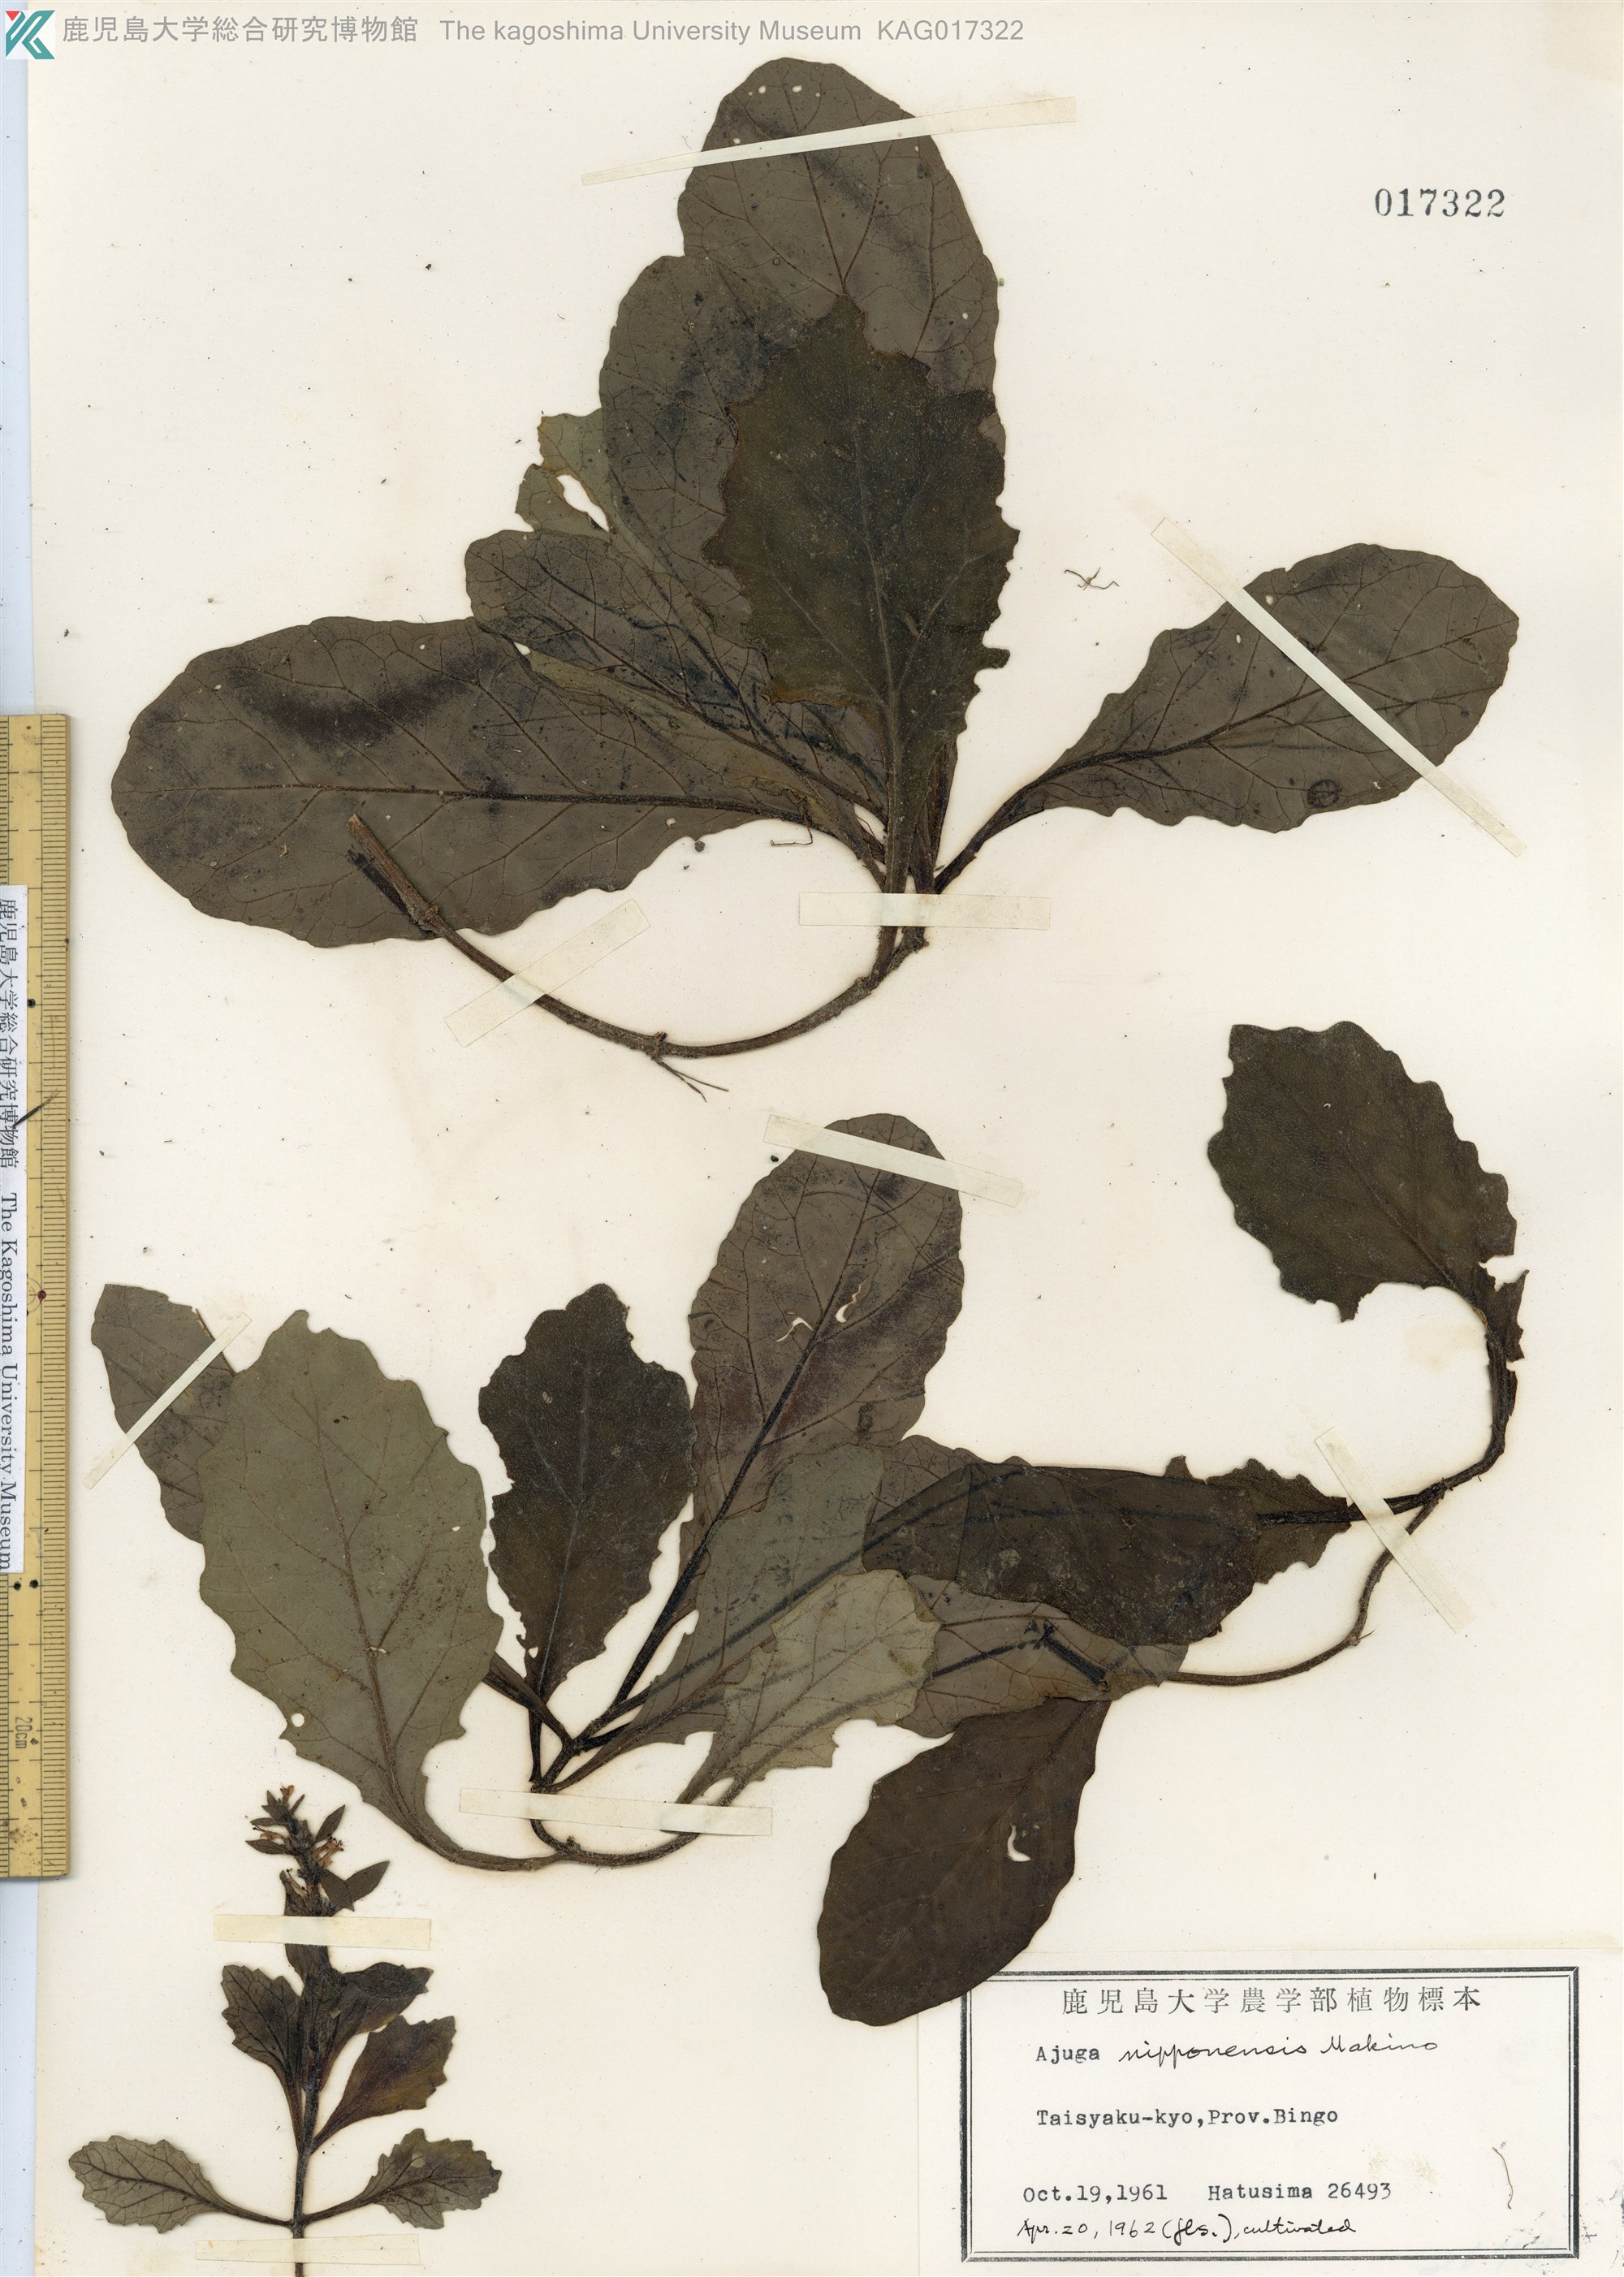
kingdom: Plantae
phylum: Tracheophyta
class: Magnoliopsida
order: Lamiales
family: Lamiaceae
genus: Ajuga
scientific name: Ajuga nipponensis
